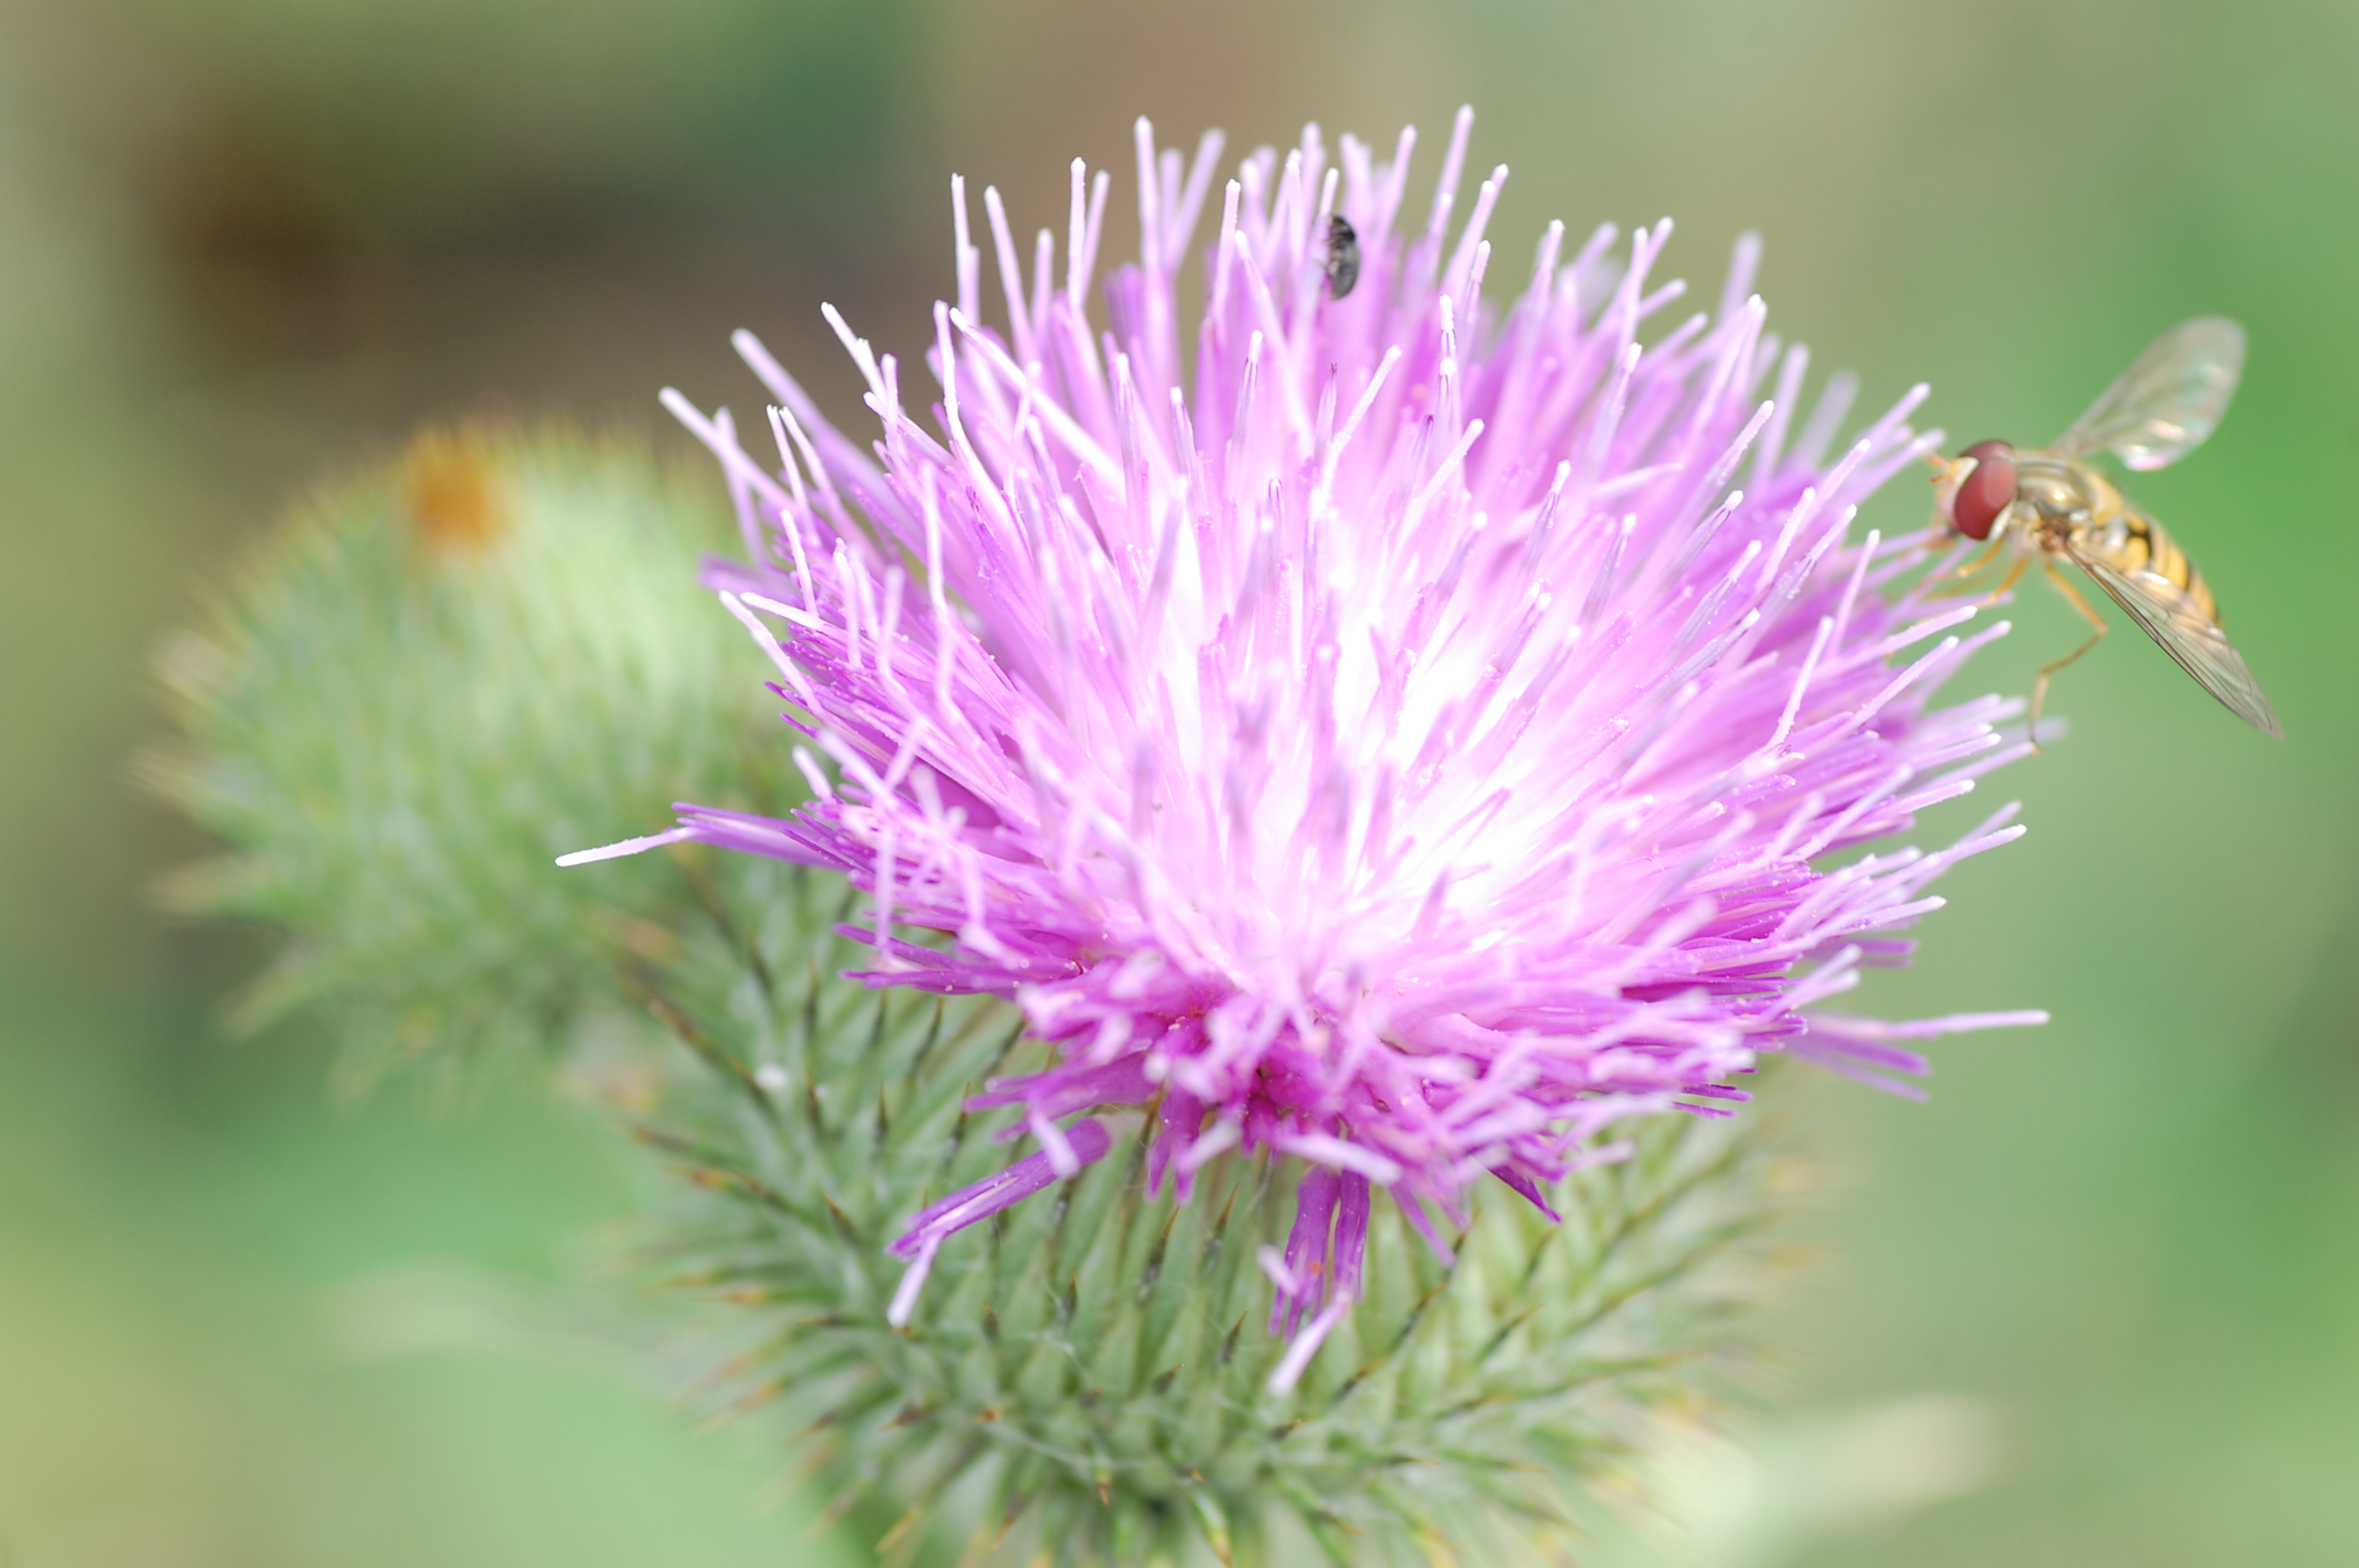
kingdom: Plantae
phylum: Tracheophyta
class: Magnoliopsida
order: Asterales
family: Asteraceae
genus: Onopordum
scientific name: Onopordum acanthium
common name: Scotch thistle
